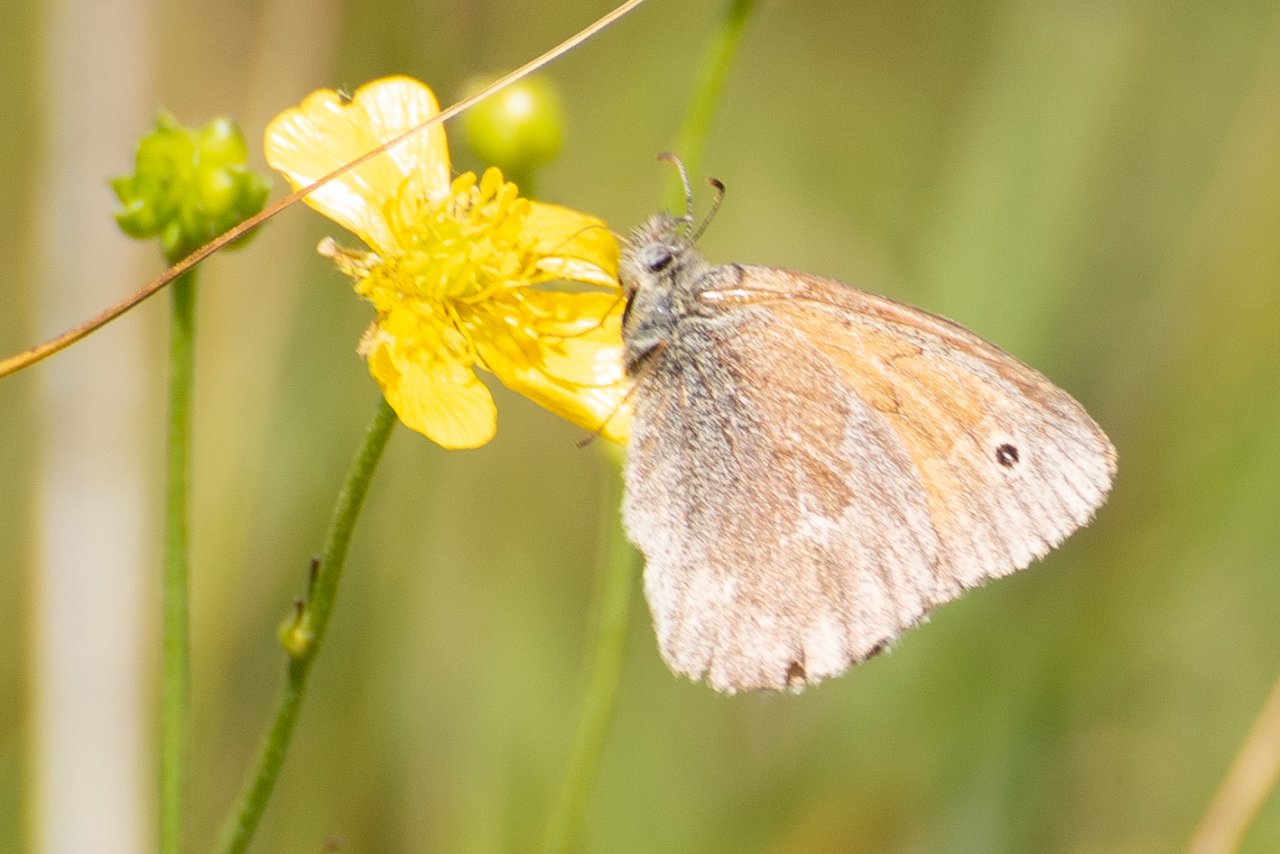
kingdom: Animalia
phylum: Arthropoda
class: Insecta
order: Lepidoptera
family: Nymphalidae
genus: Coenonympha
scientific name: Coenonympha tullia
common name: Large Heath
